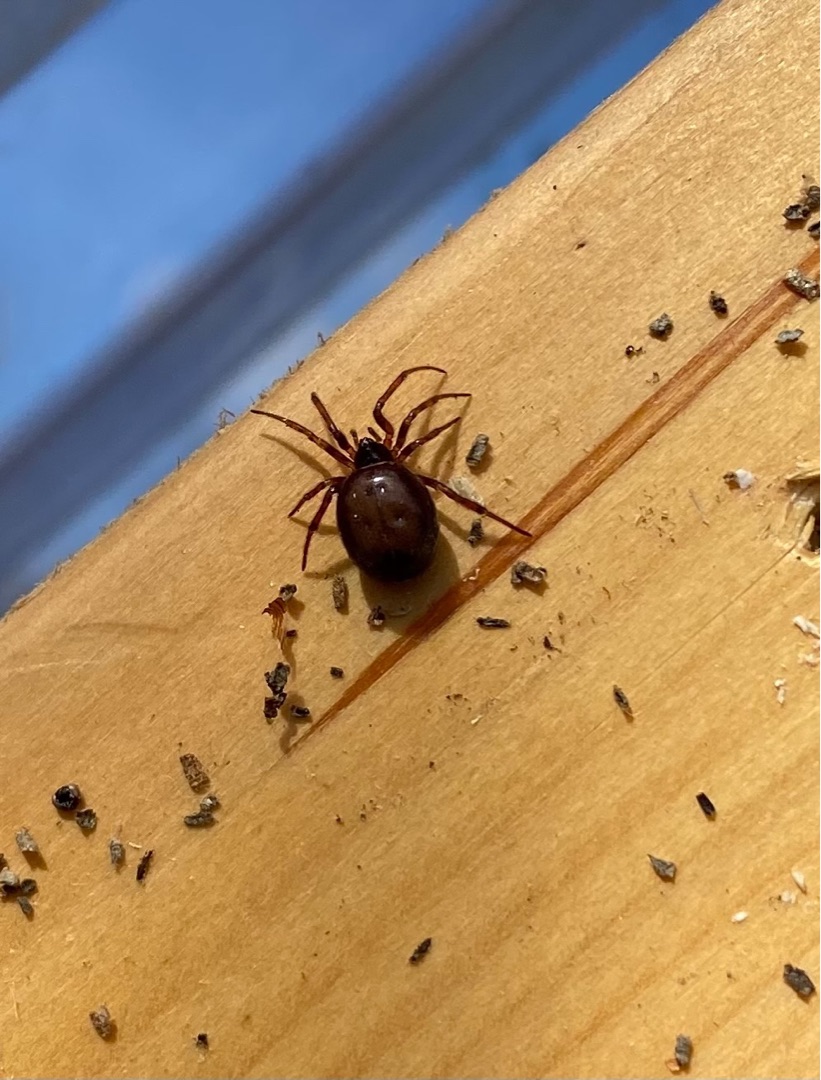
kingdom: Animalia
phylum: Arthropoda
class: Arachnida
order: Araneae
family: Theridiidae
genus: Steatoda
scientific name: Steatoda bipunctata
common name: Fedtedderkop
